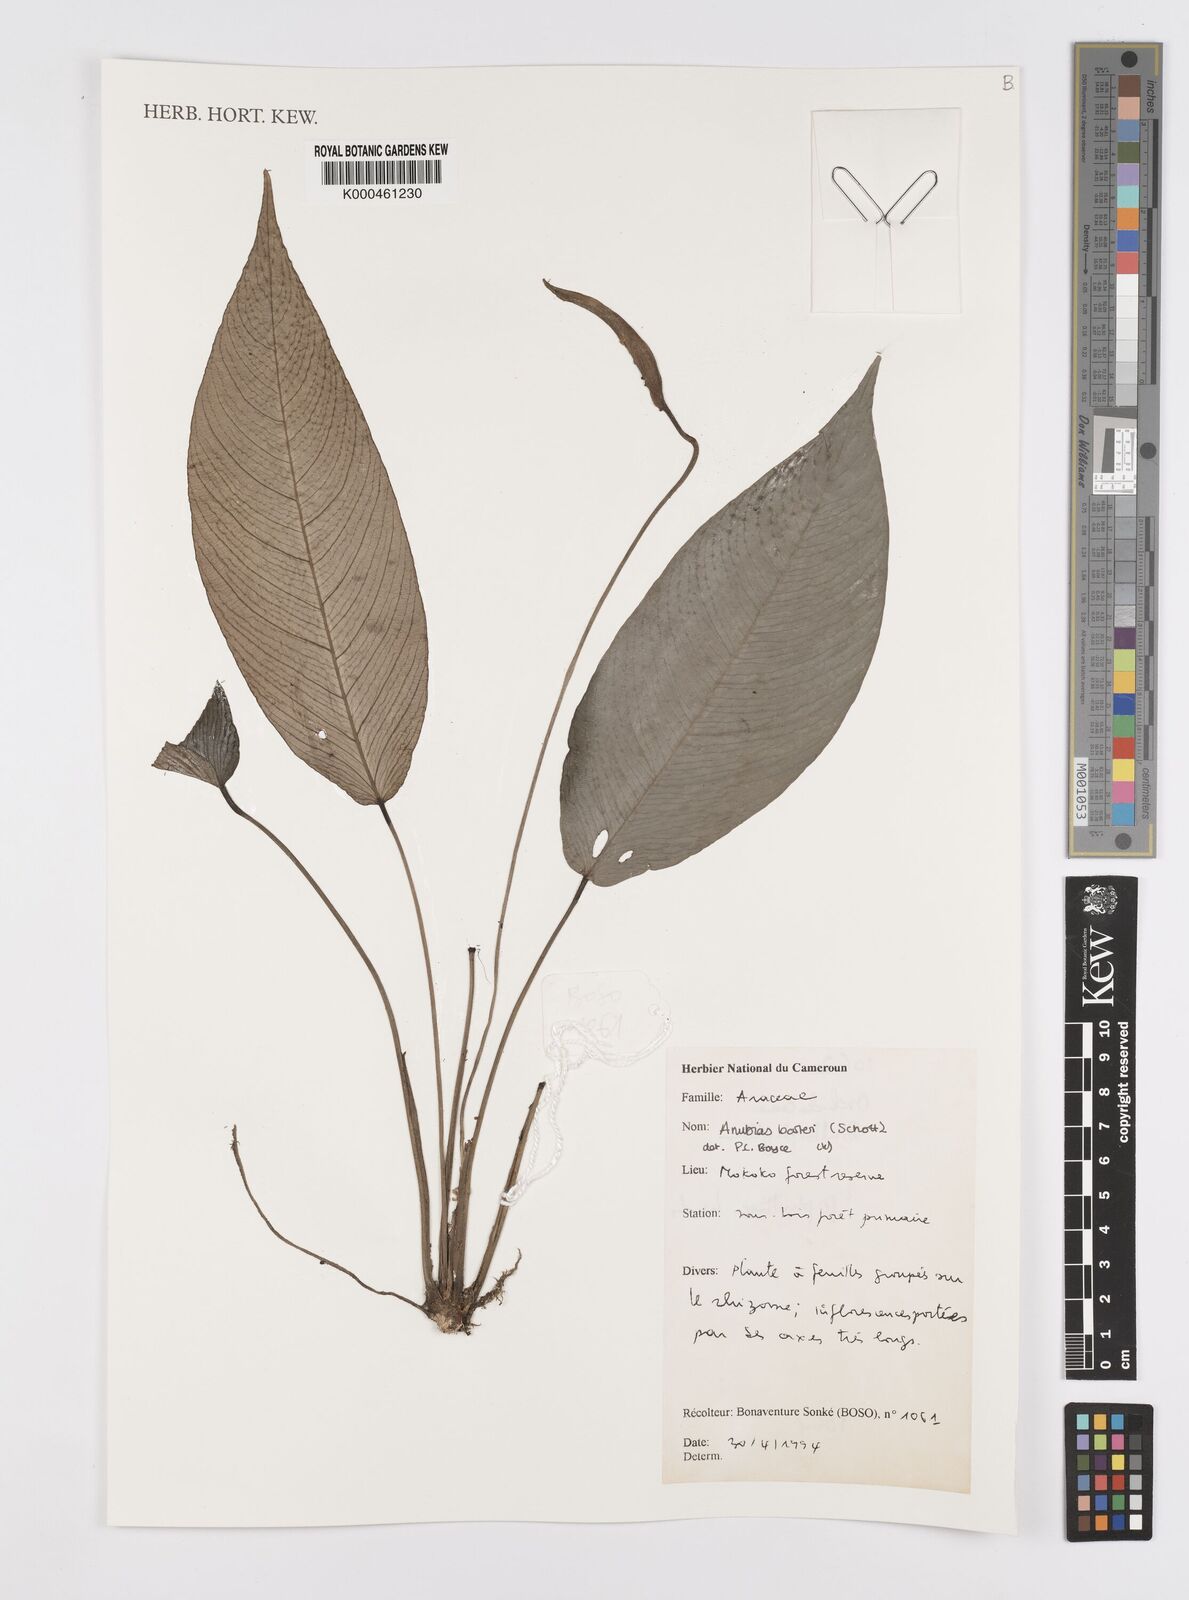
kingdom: Plantae
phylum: Tracheophyta
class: Liliopsida
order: Alismatales
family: Araceae
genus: Anubias
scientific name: Anubias barteri
